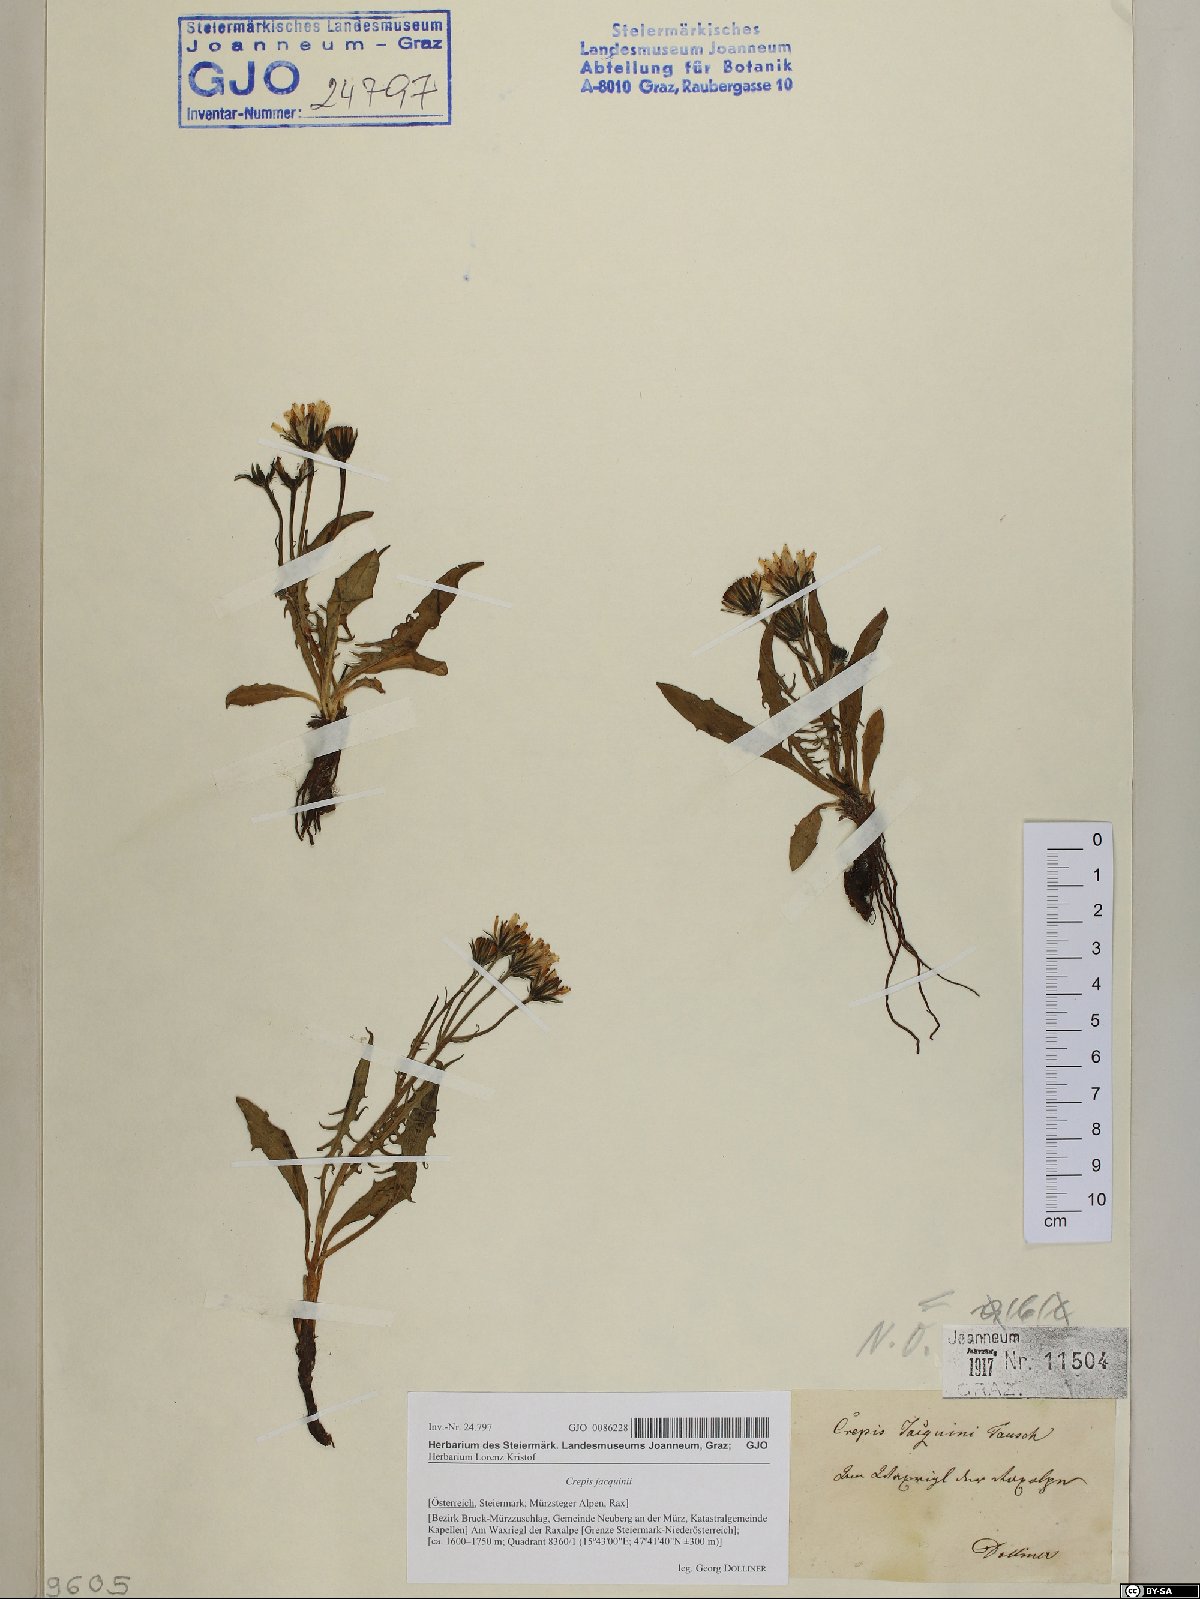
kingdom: Plantae
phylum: Tracheophyta
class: Magnoliopsida
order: Asterales
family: Asteraceae
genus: Crepis
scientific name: Crepis jacquinii
